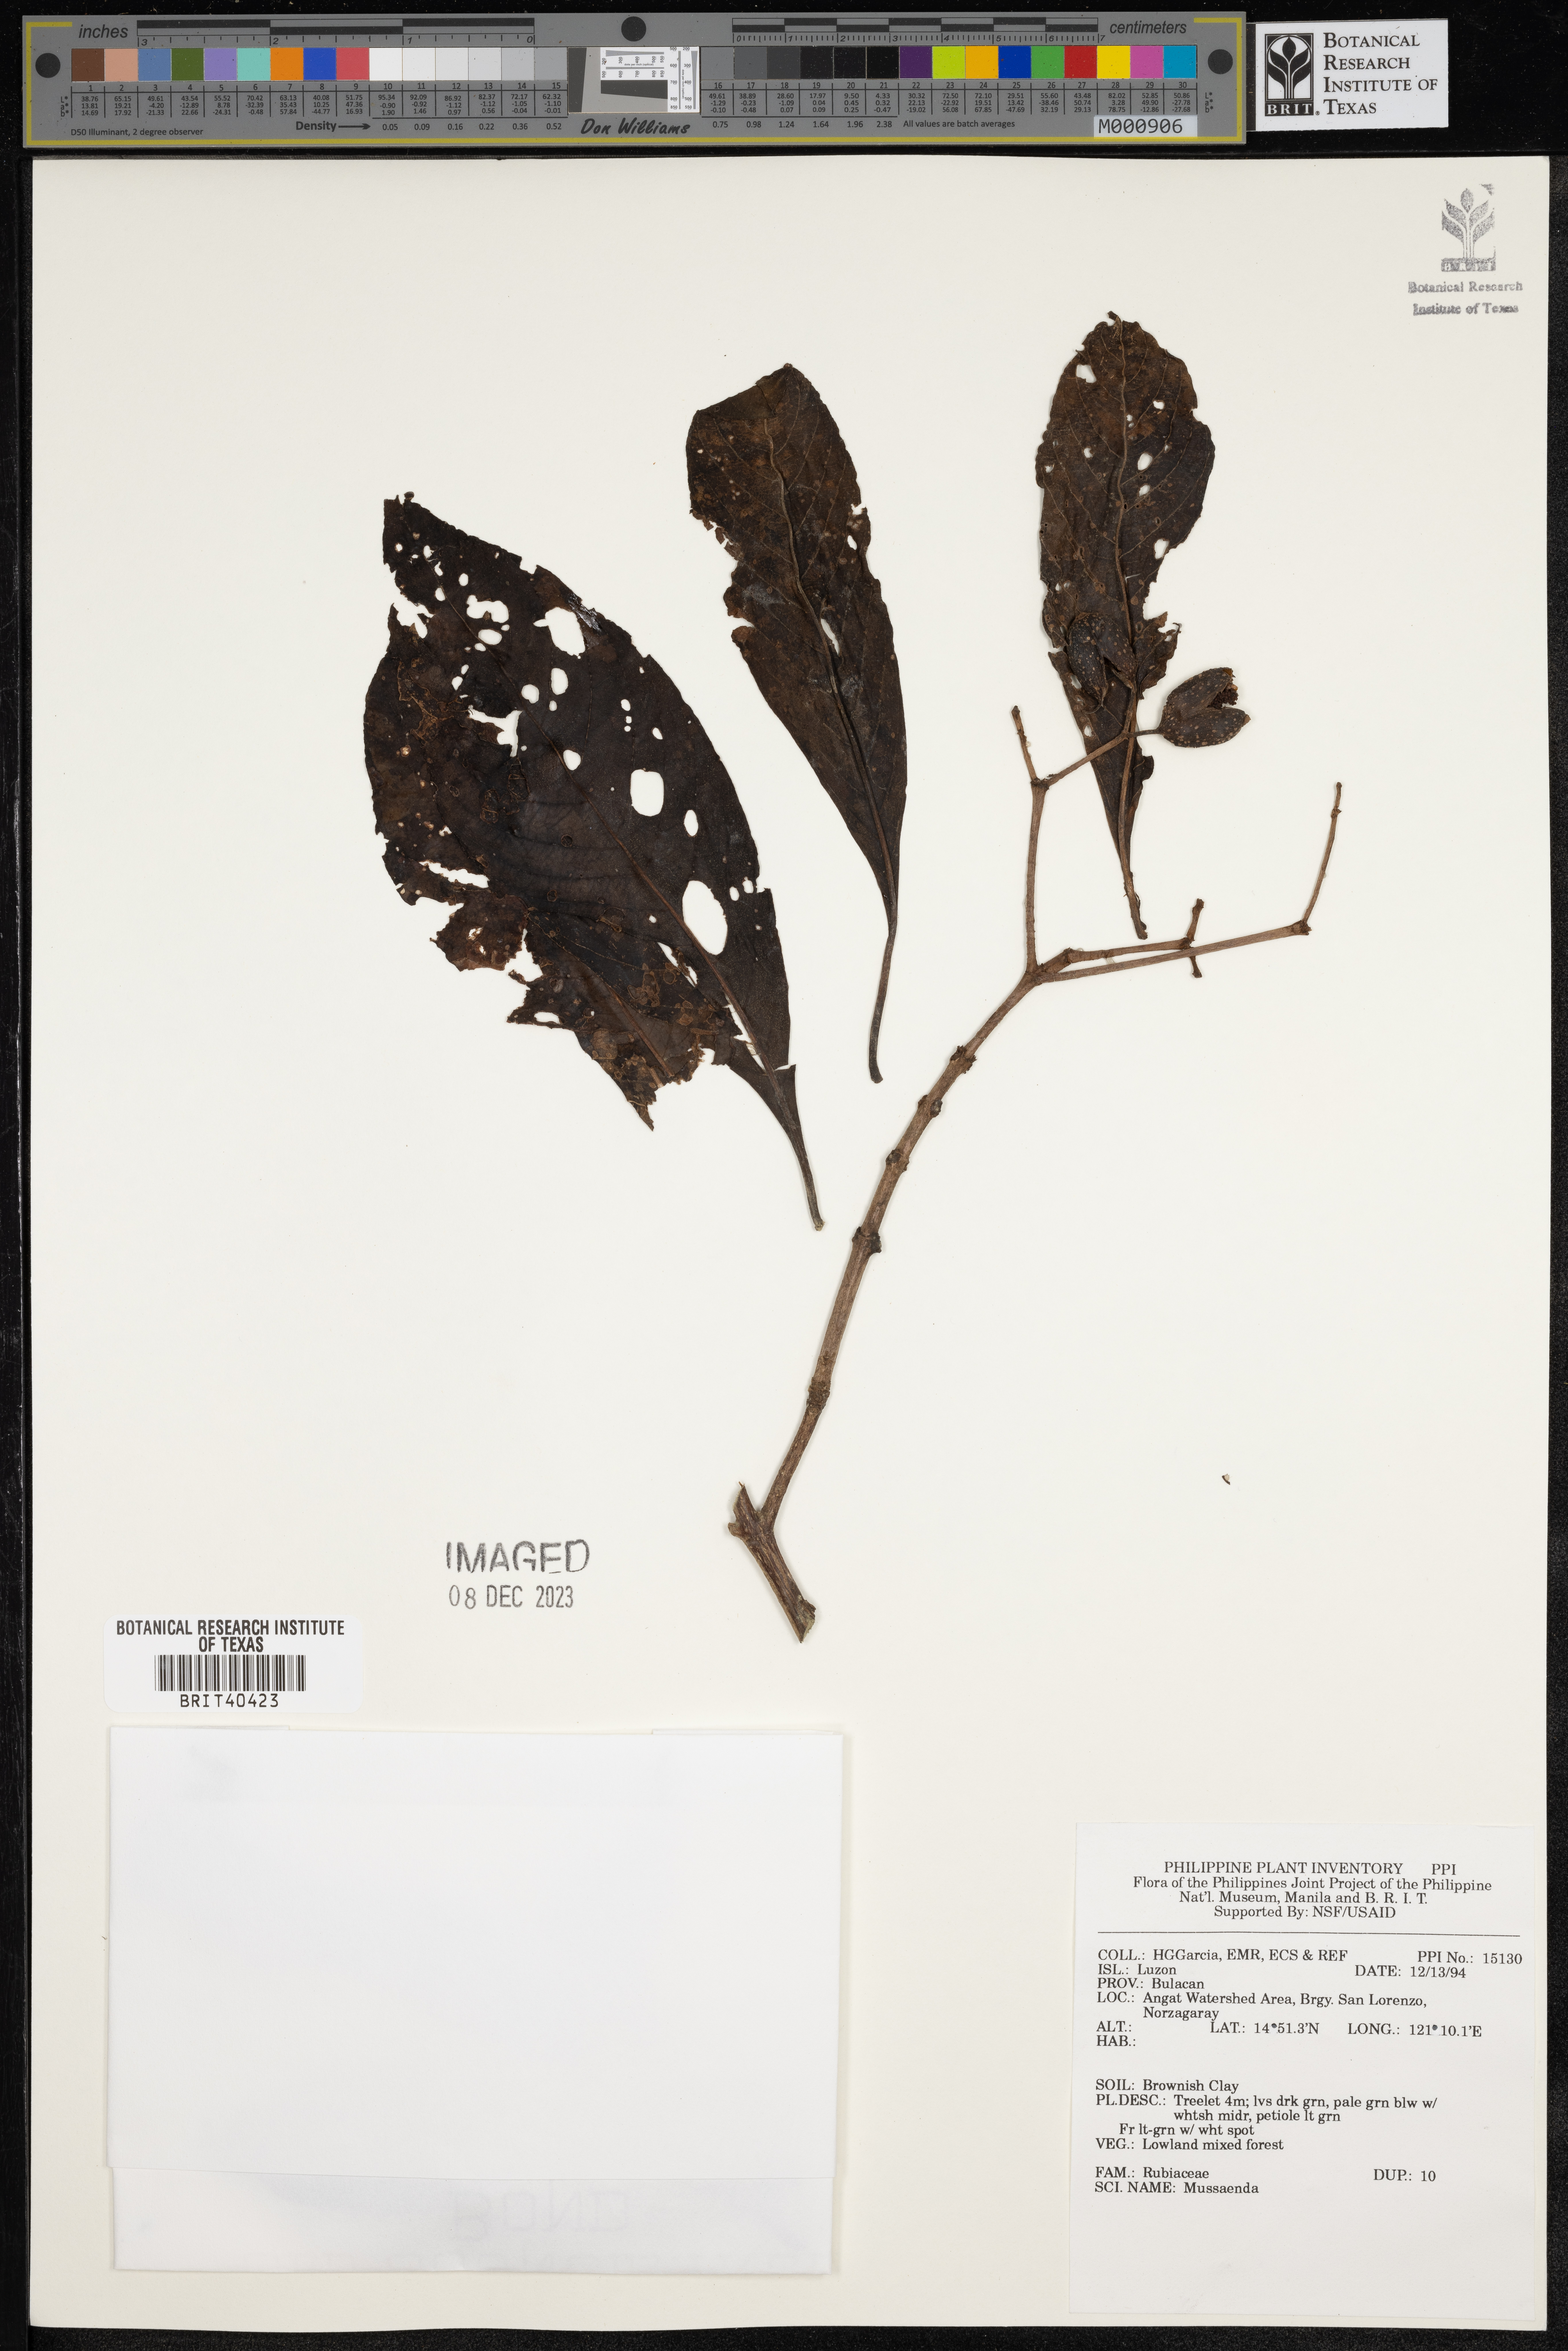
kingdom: Plantae
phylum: Tracheophyta
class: Magnoliopsida
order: Gentianales
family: Rubiaceae
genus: Mussaenda
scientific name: Mussaenda
